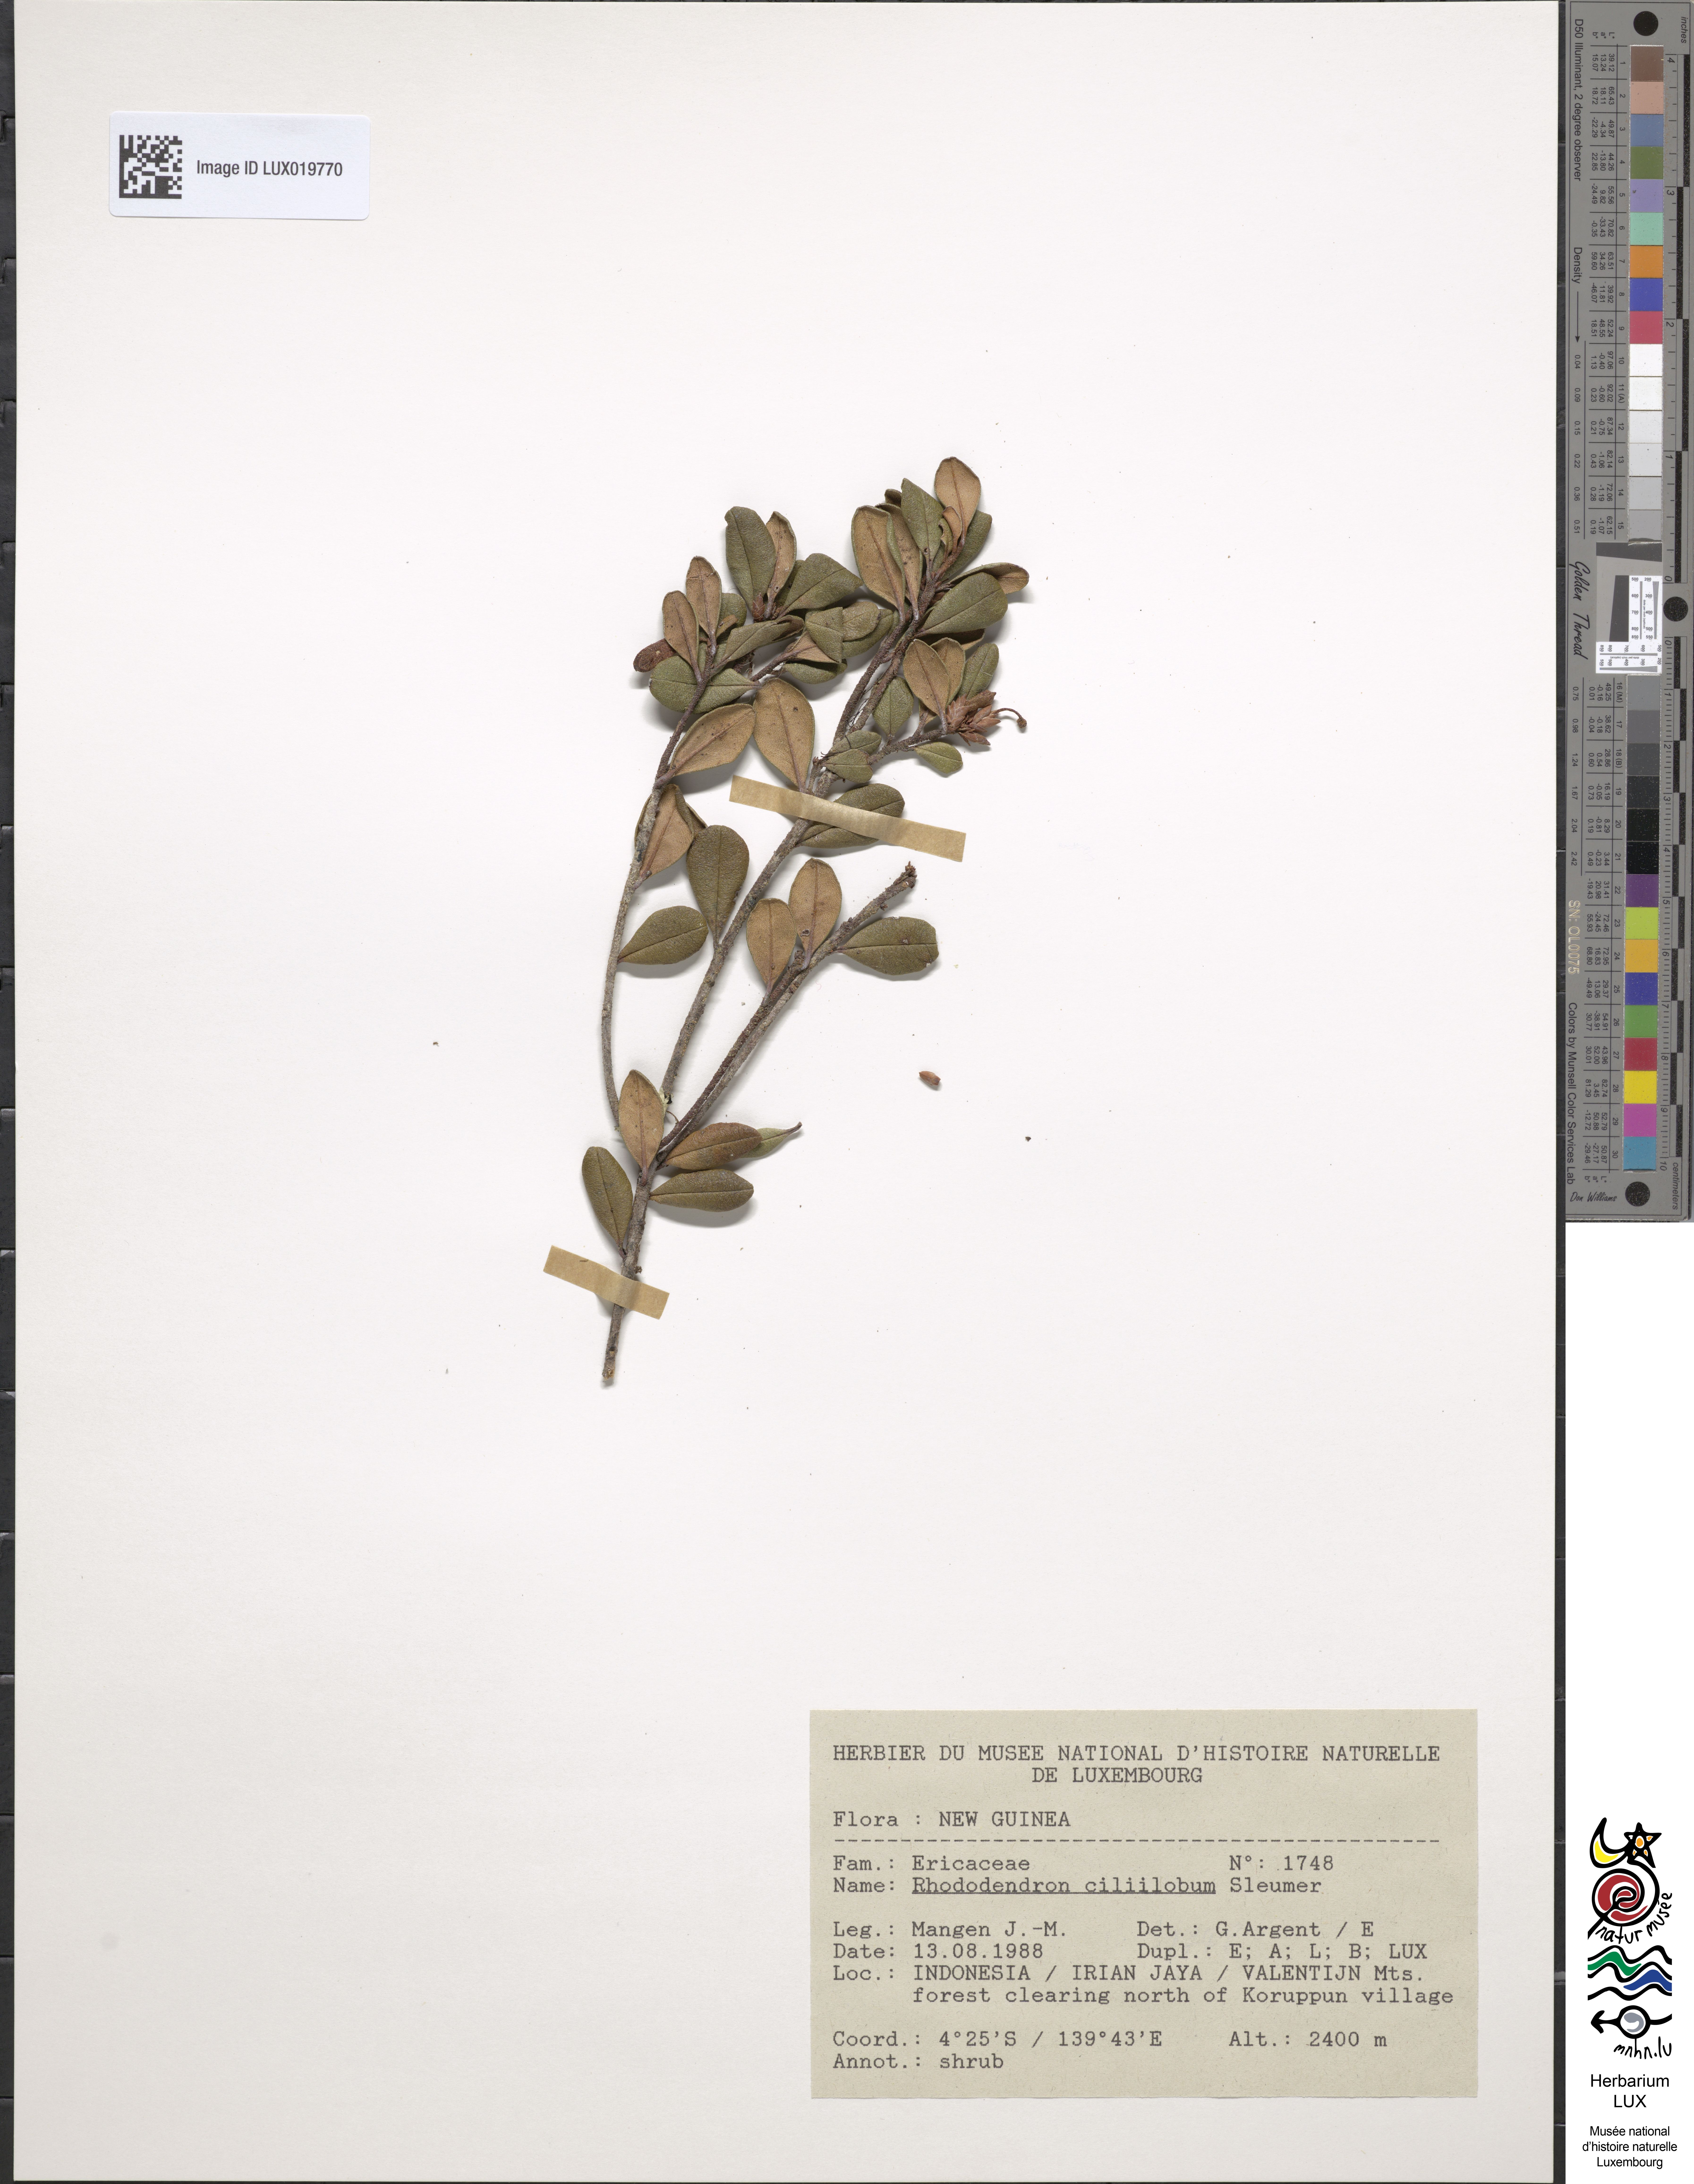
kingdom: Plantae
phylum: Tracheophyta
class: Magnoliopsida
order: Ericales
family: Ericaceae
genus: Rhododendron
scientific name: Rhododendron ciliilobum
